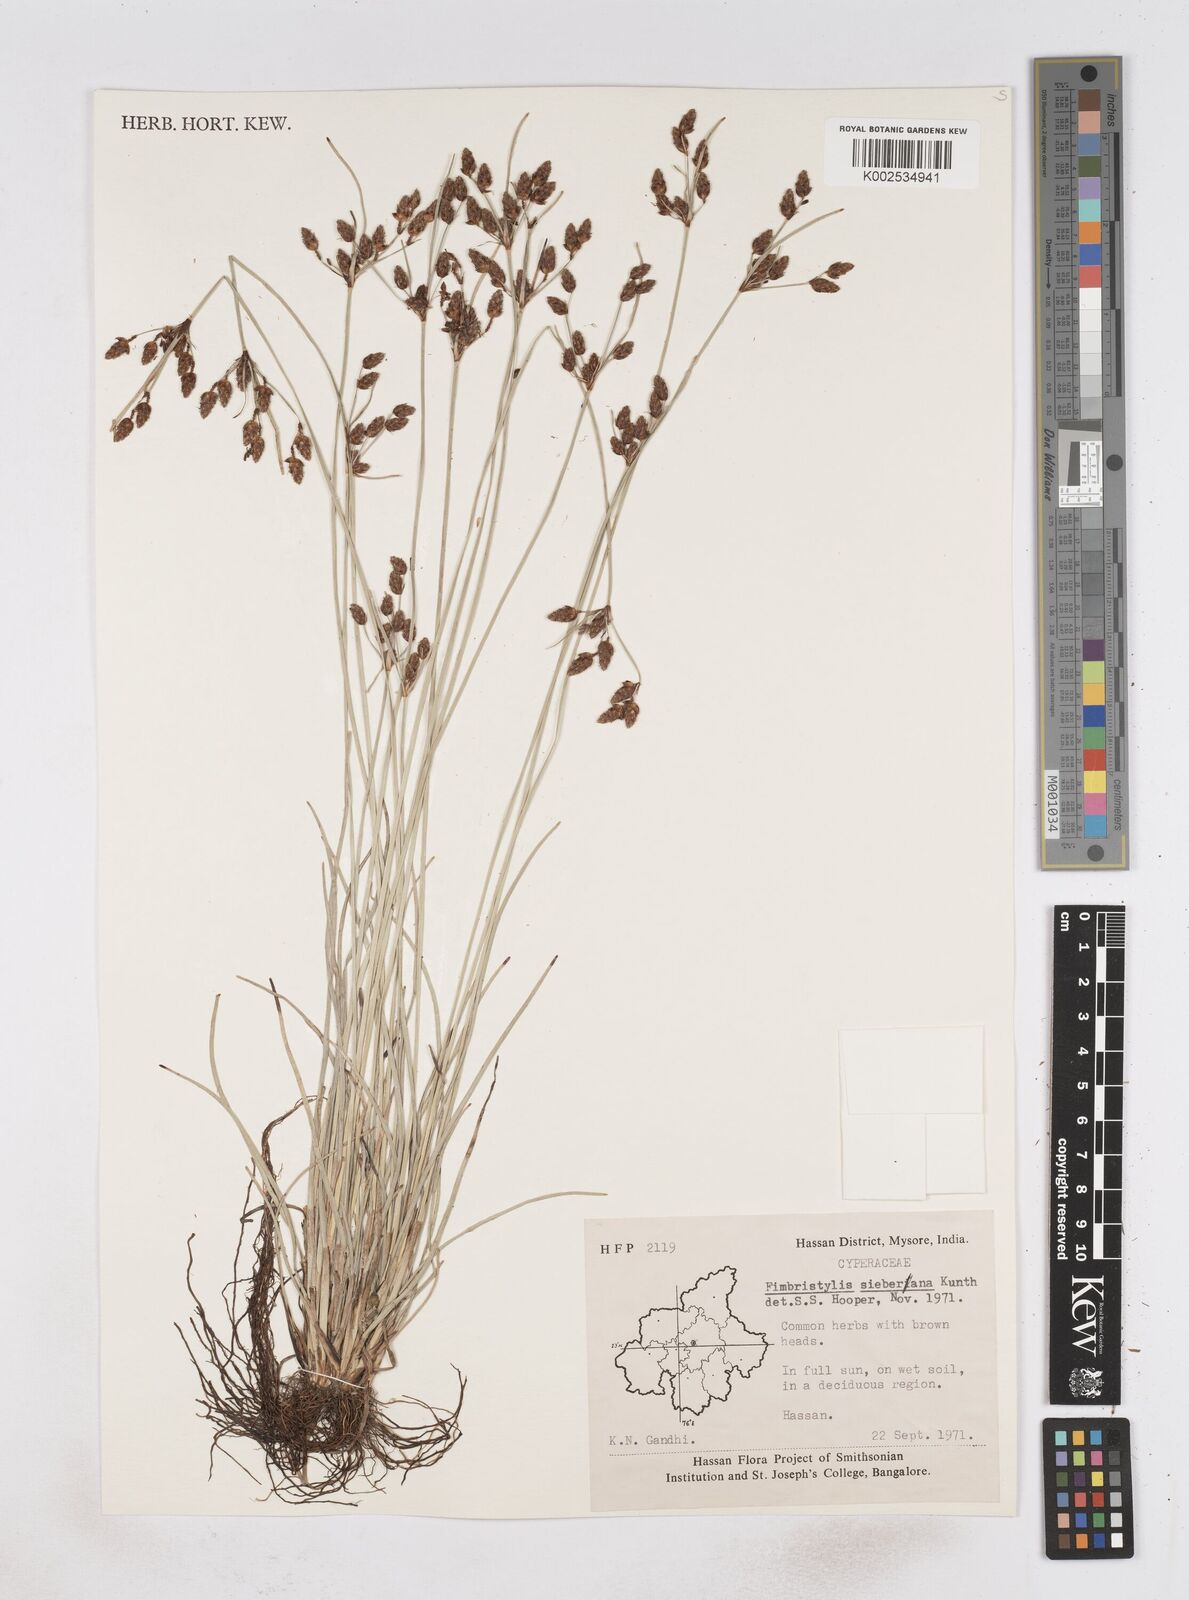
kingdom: Plantae
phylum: Tracheophyta
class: Liliopsida
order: Poales
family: Cyperaceae
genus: Fimbristylis
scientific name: Fimbristylis ferruginea
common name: West indian fimbry
